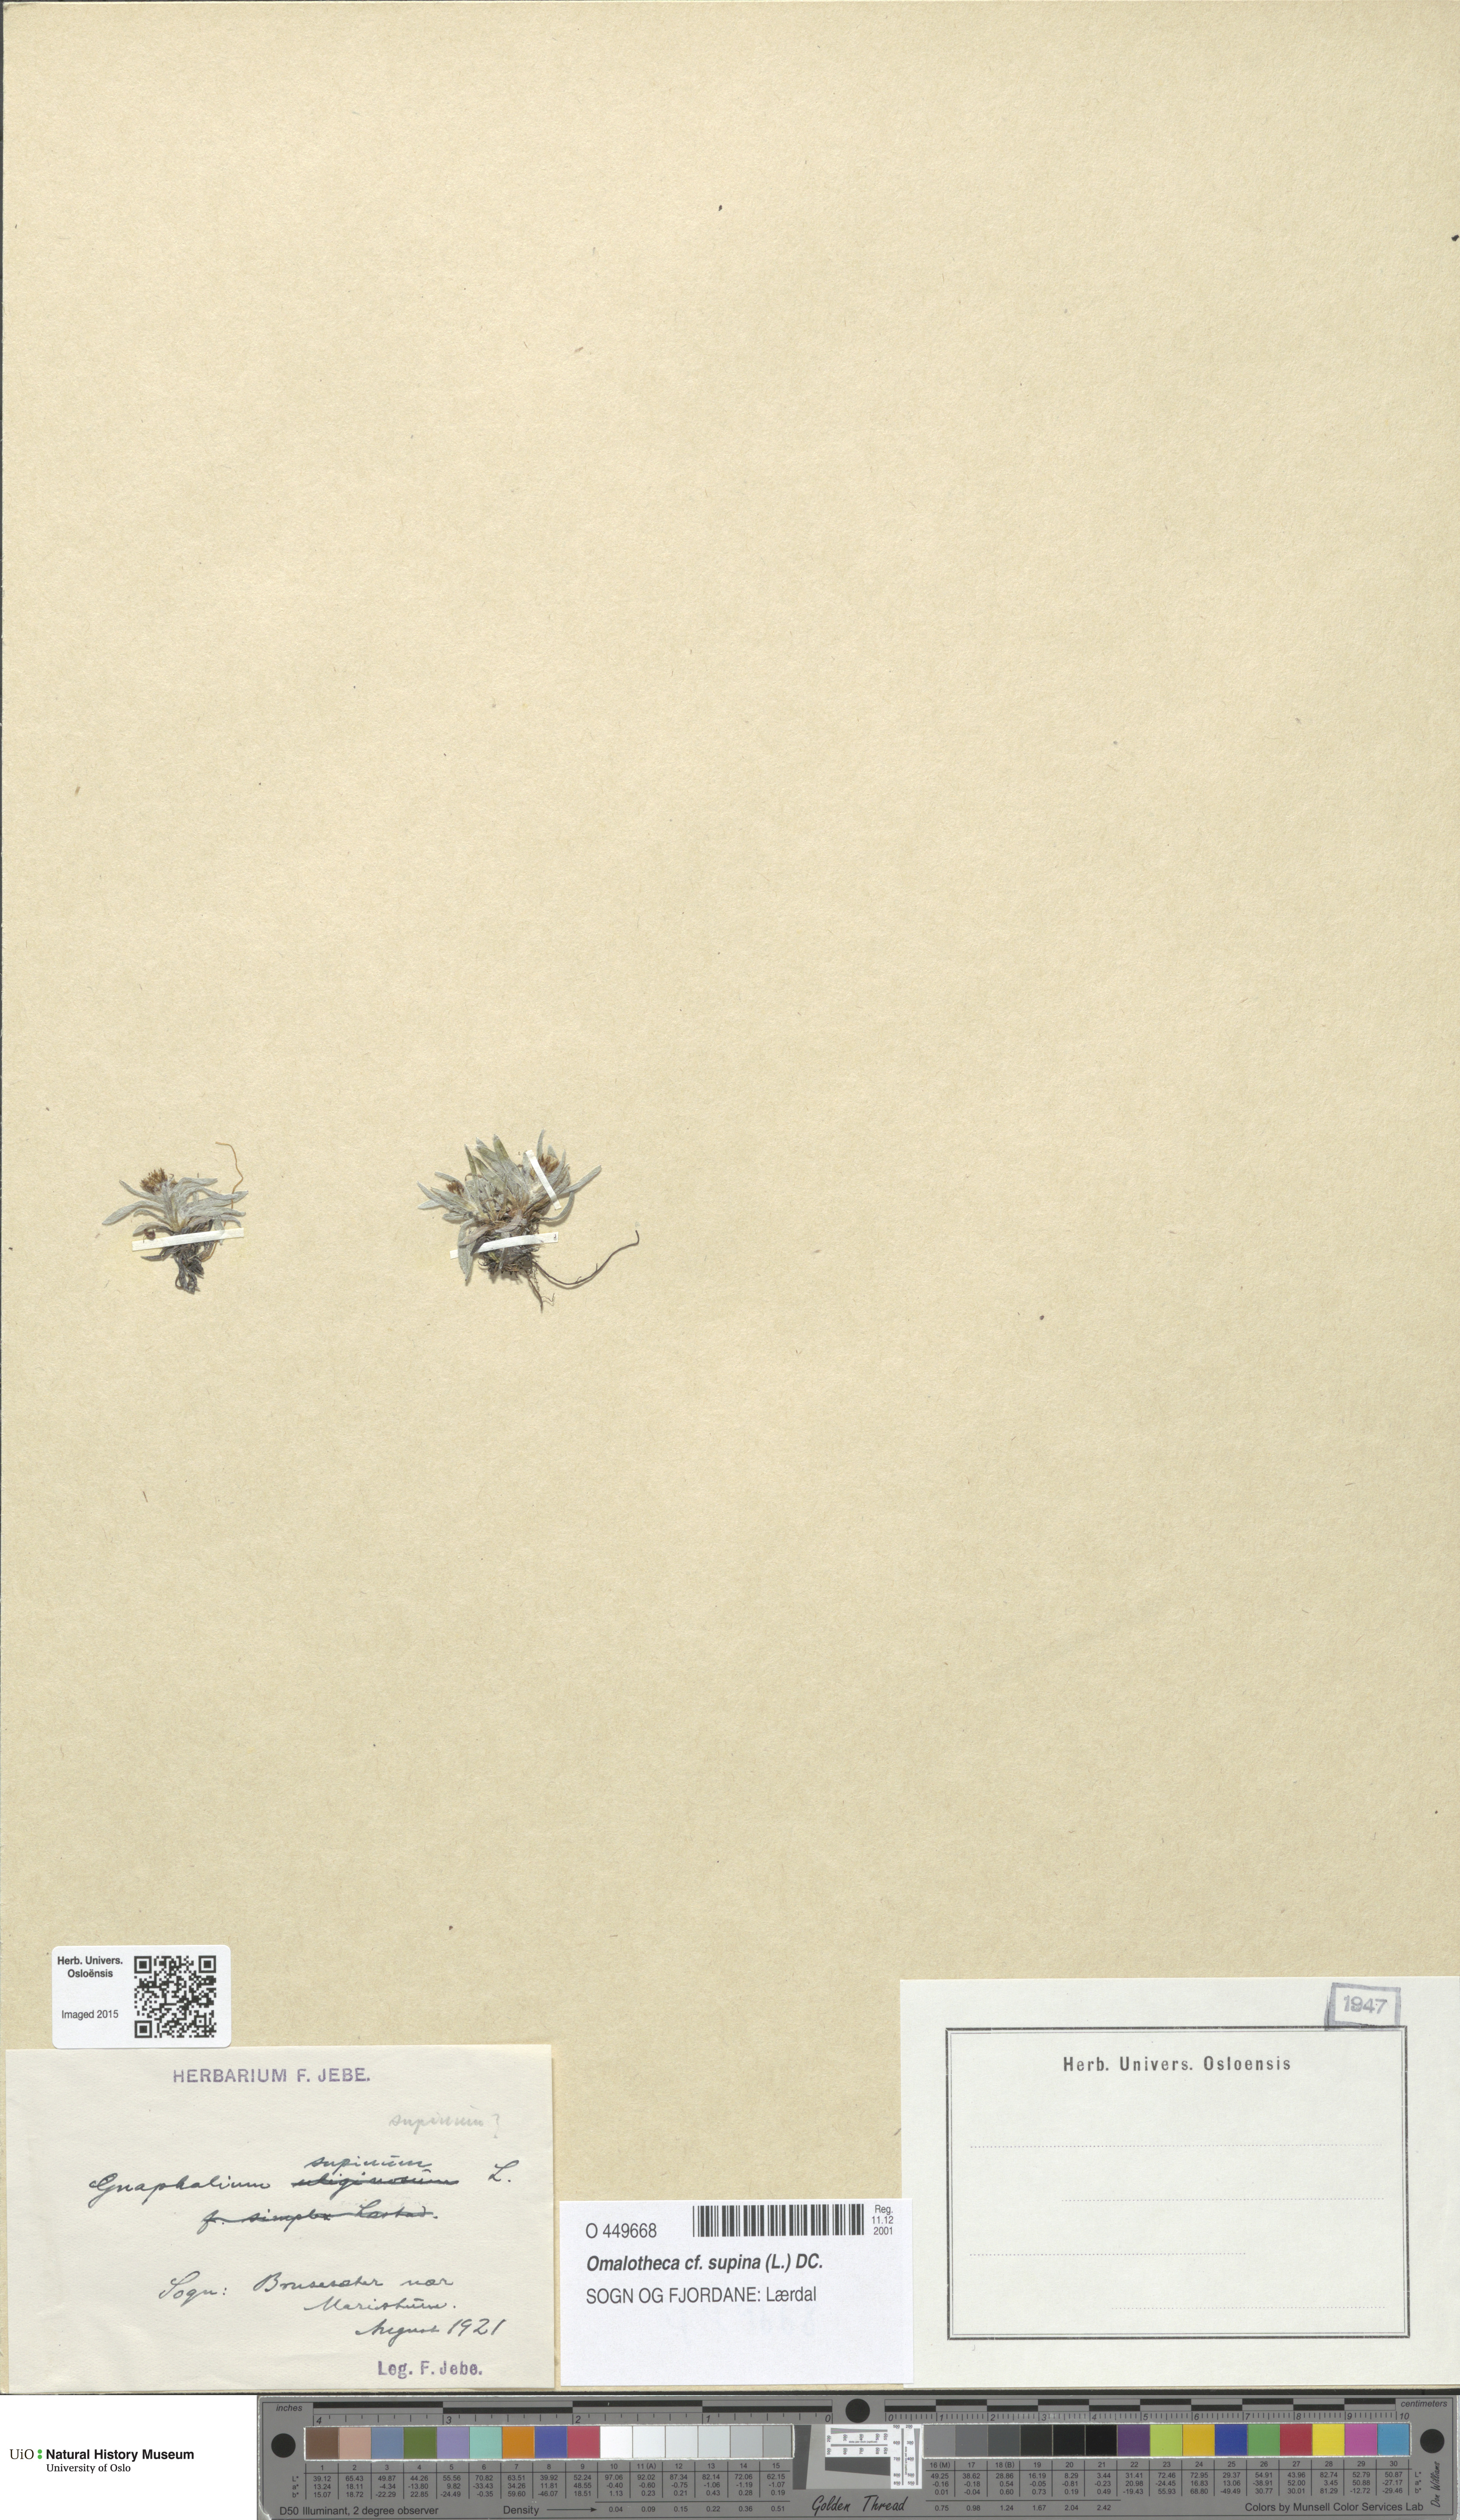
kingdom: Plantae
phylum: Tracheophyta
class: Magnoliopsida
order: Asterales
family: Asteraceae
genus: Omalotheca
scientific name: Omalotheca supina
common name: Alpine arctic-cudweed
